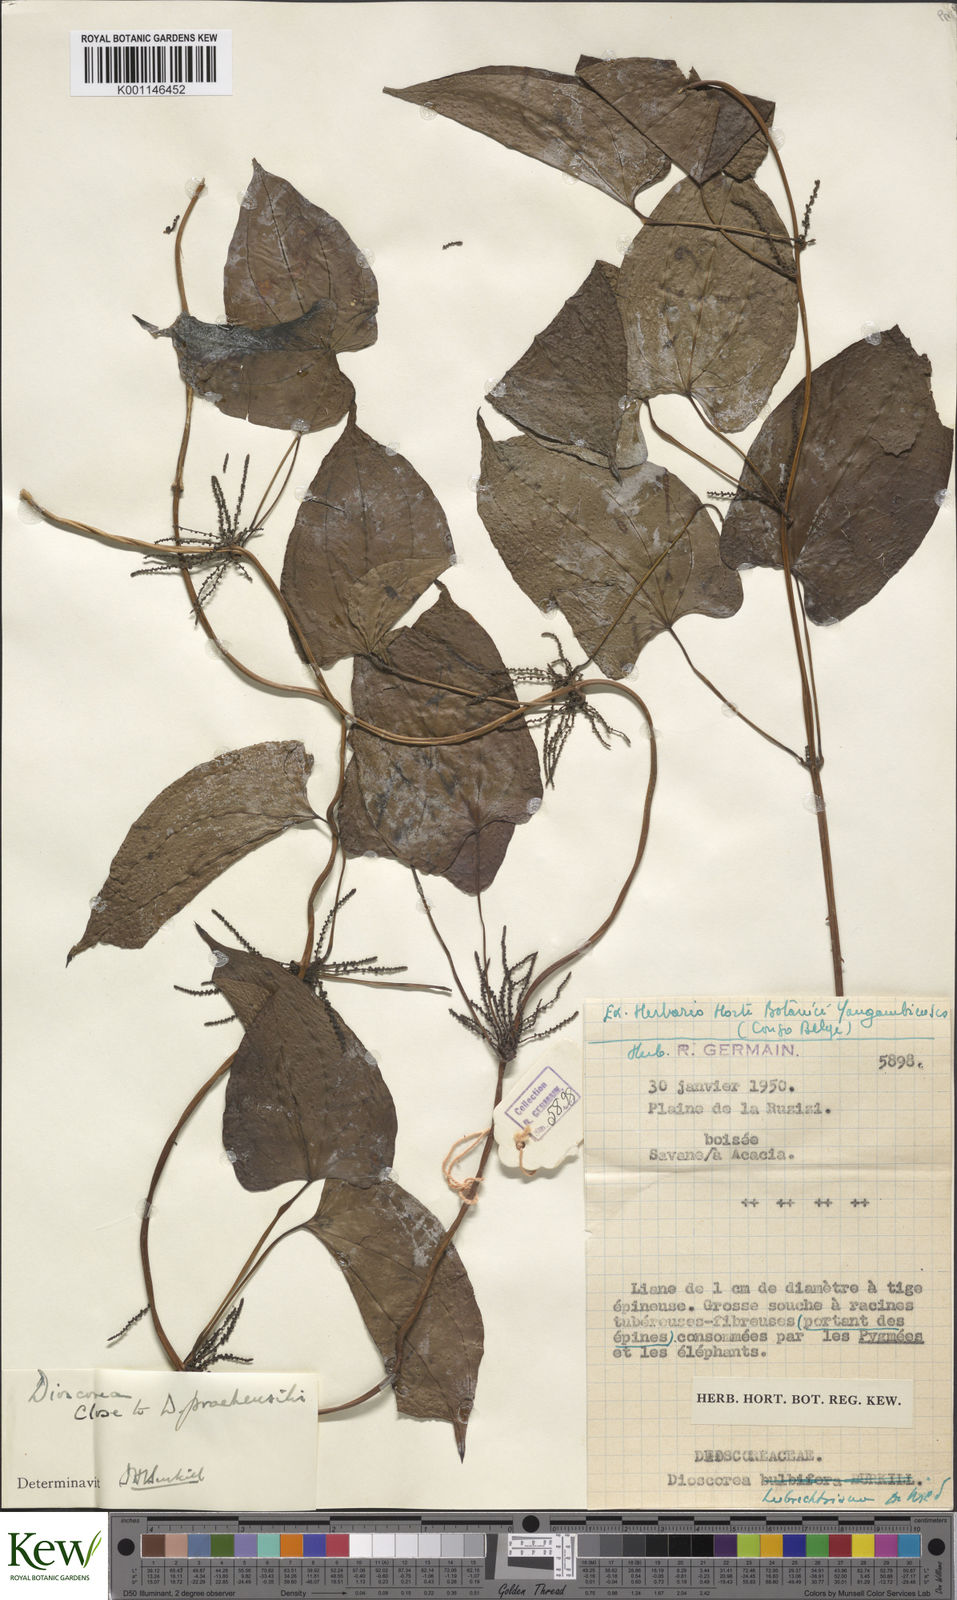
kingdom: Plantae
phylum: Tracheophyta
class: Liliopsida
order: Dioscoreales
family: Dioscoreaceae
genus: Dioscorea
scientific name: Dioscorea praehensilis
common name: Bush yam
